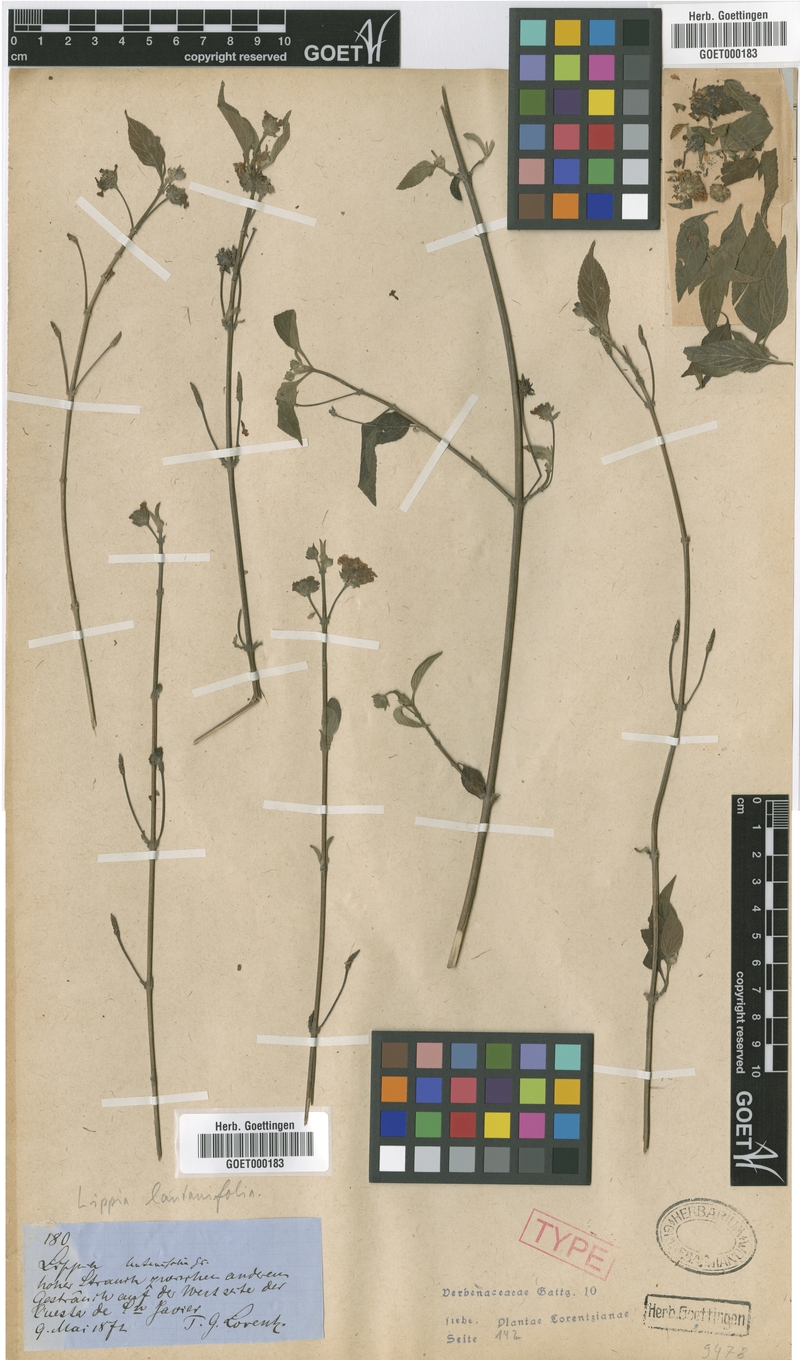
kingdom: Plantae
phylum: Tracheophyta
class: Magnoliopsida
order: Lamiales
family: Verbenaceae
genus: Lippia
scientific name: Lippia brachypoda
